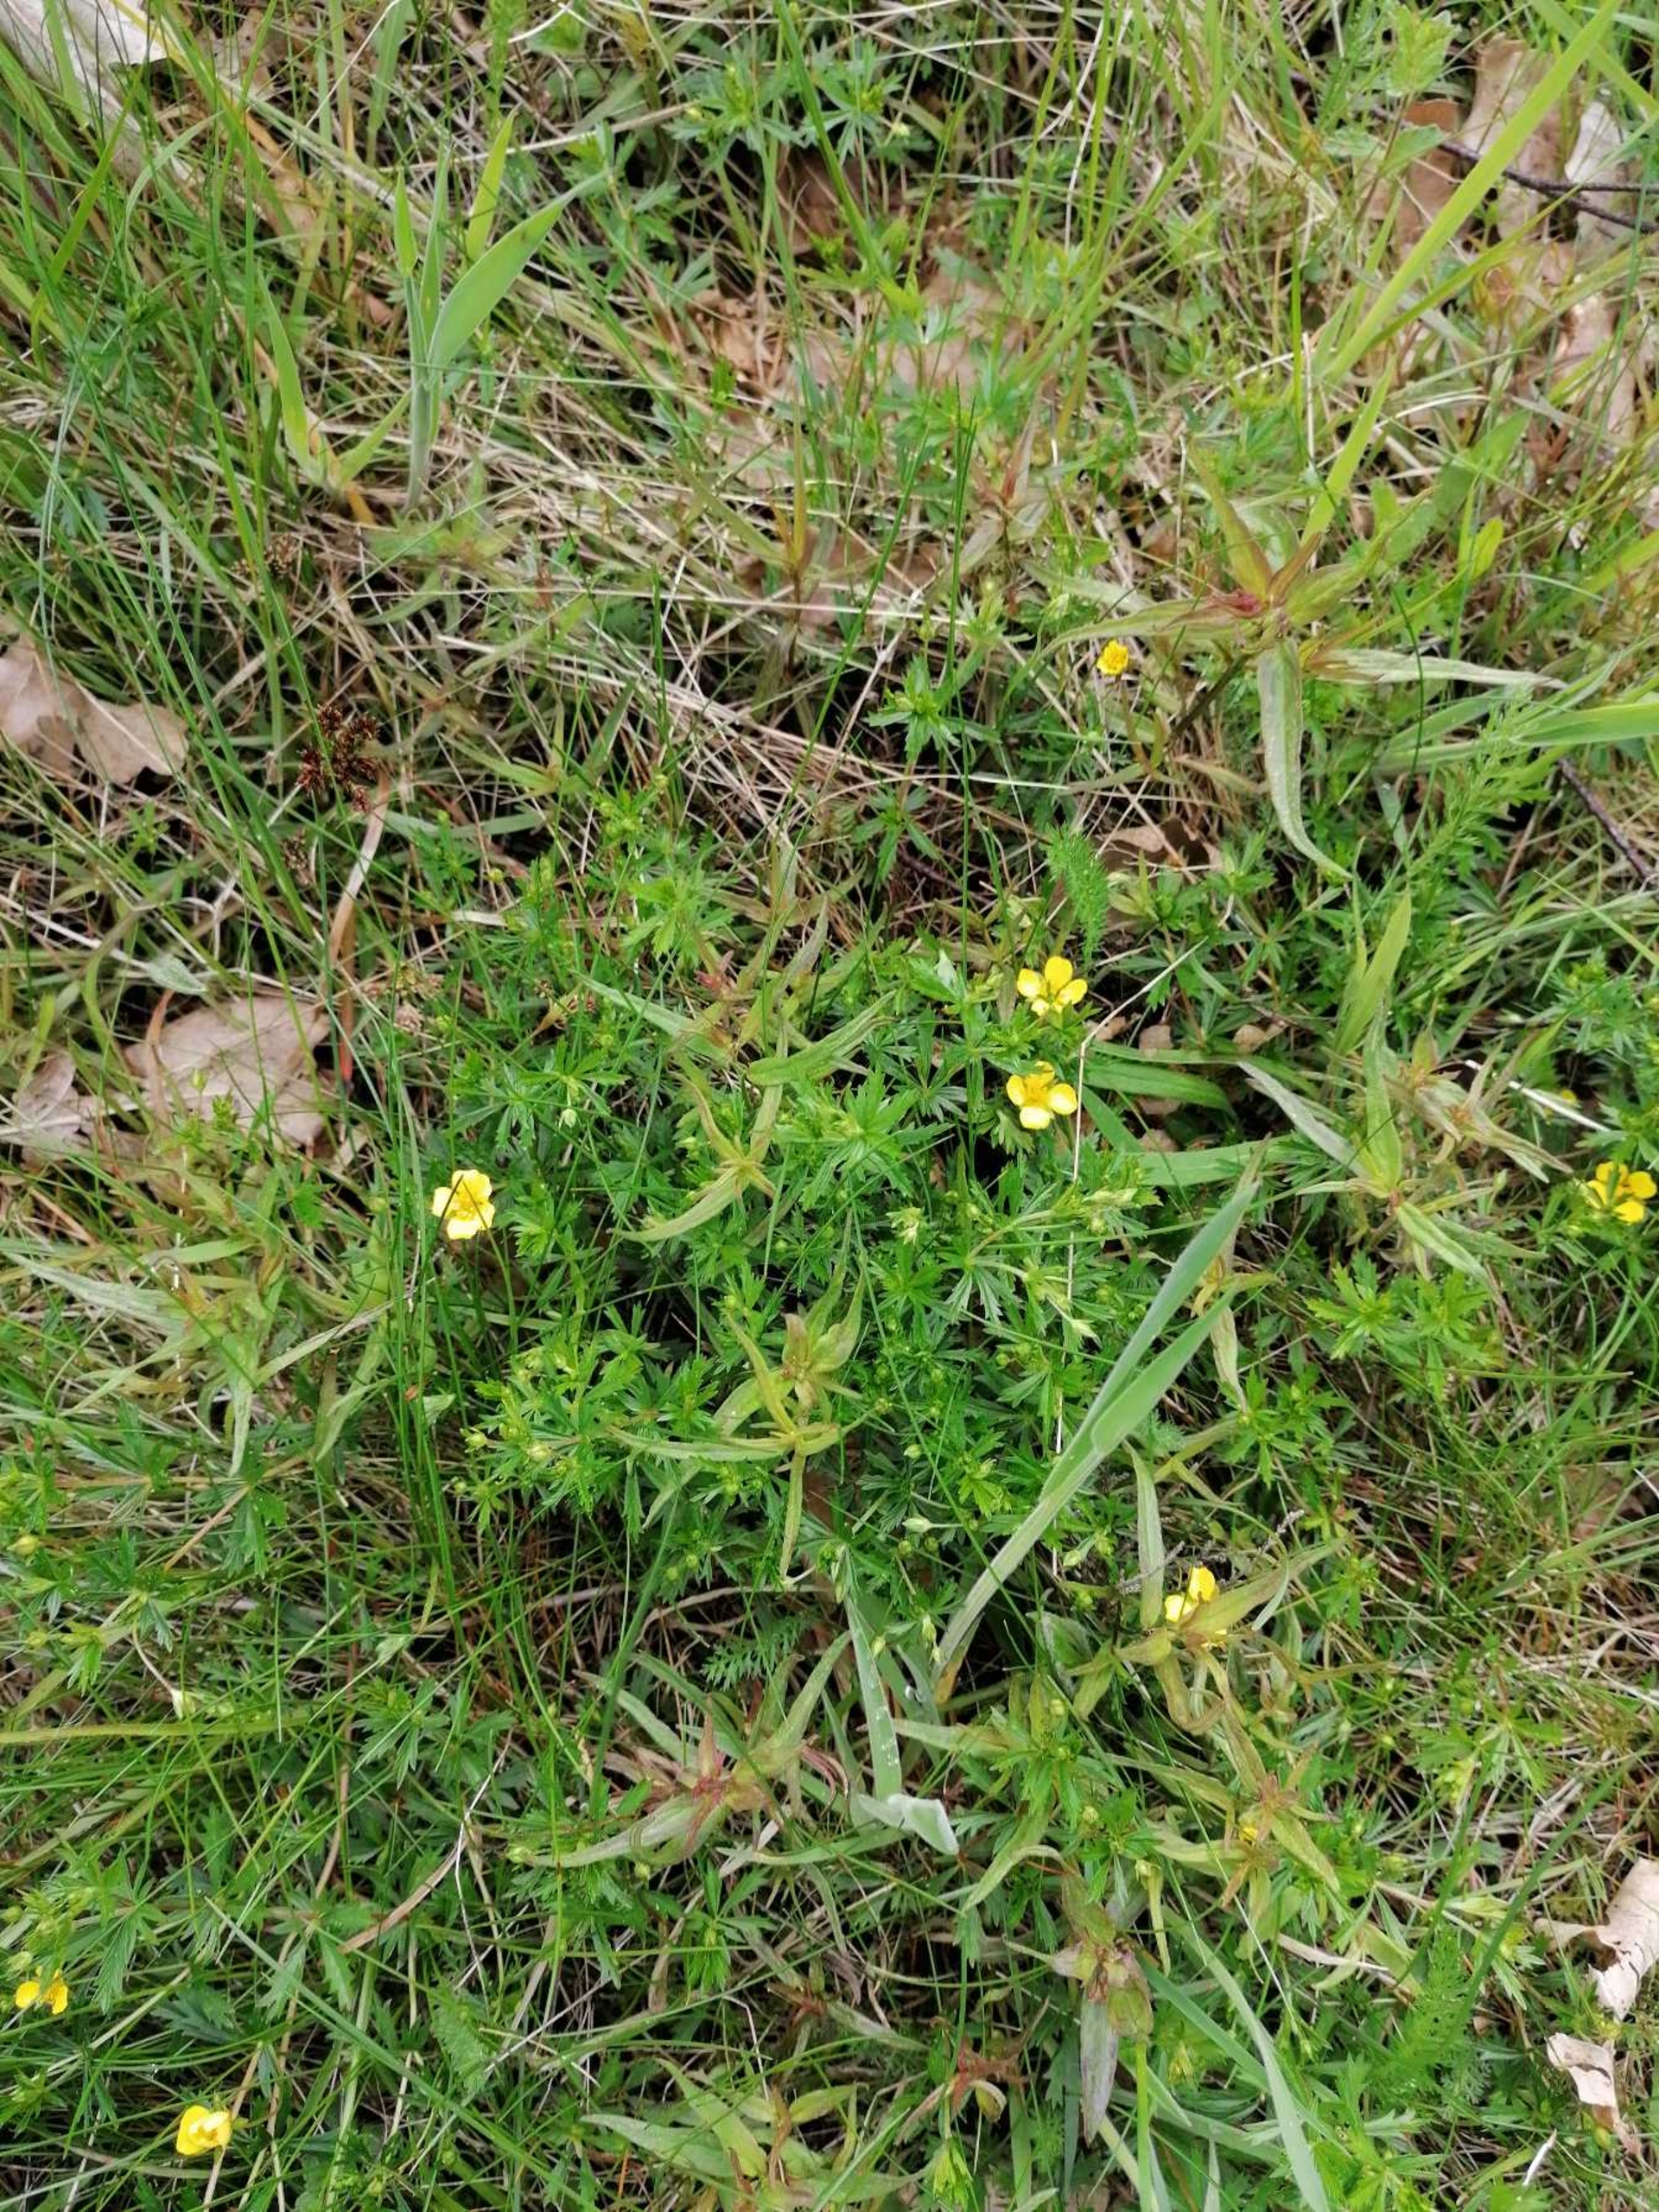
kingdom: Plantae
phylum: Tracheophyta
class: Magnoliopsida
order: Rosales
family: Rosaceae
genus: Potentilla
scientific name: Potentilla erecta
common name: Tormentil
